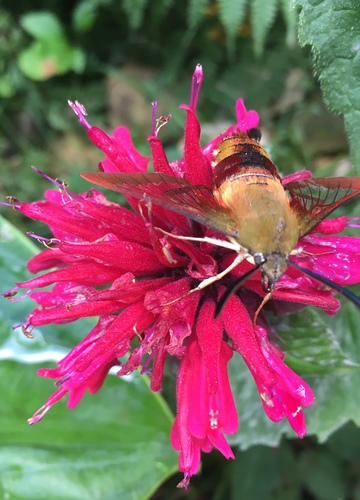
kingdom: Animalia
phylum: Arthropoda
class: Insecta
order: Lepidoptera
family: Sphingidae
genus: Hemaris
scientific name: Hemaris thysbe
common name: Common clear-wing
